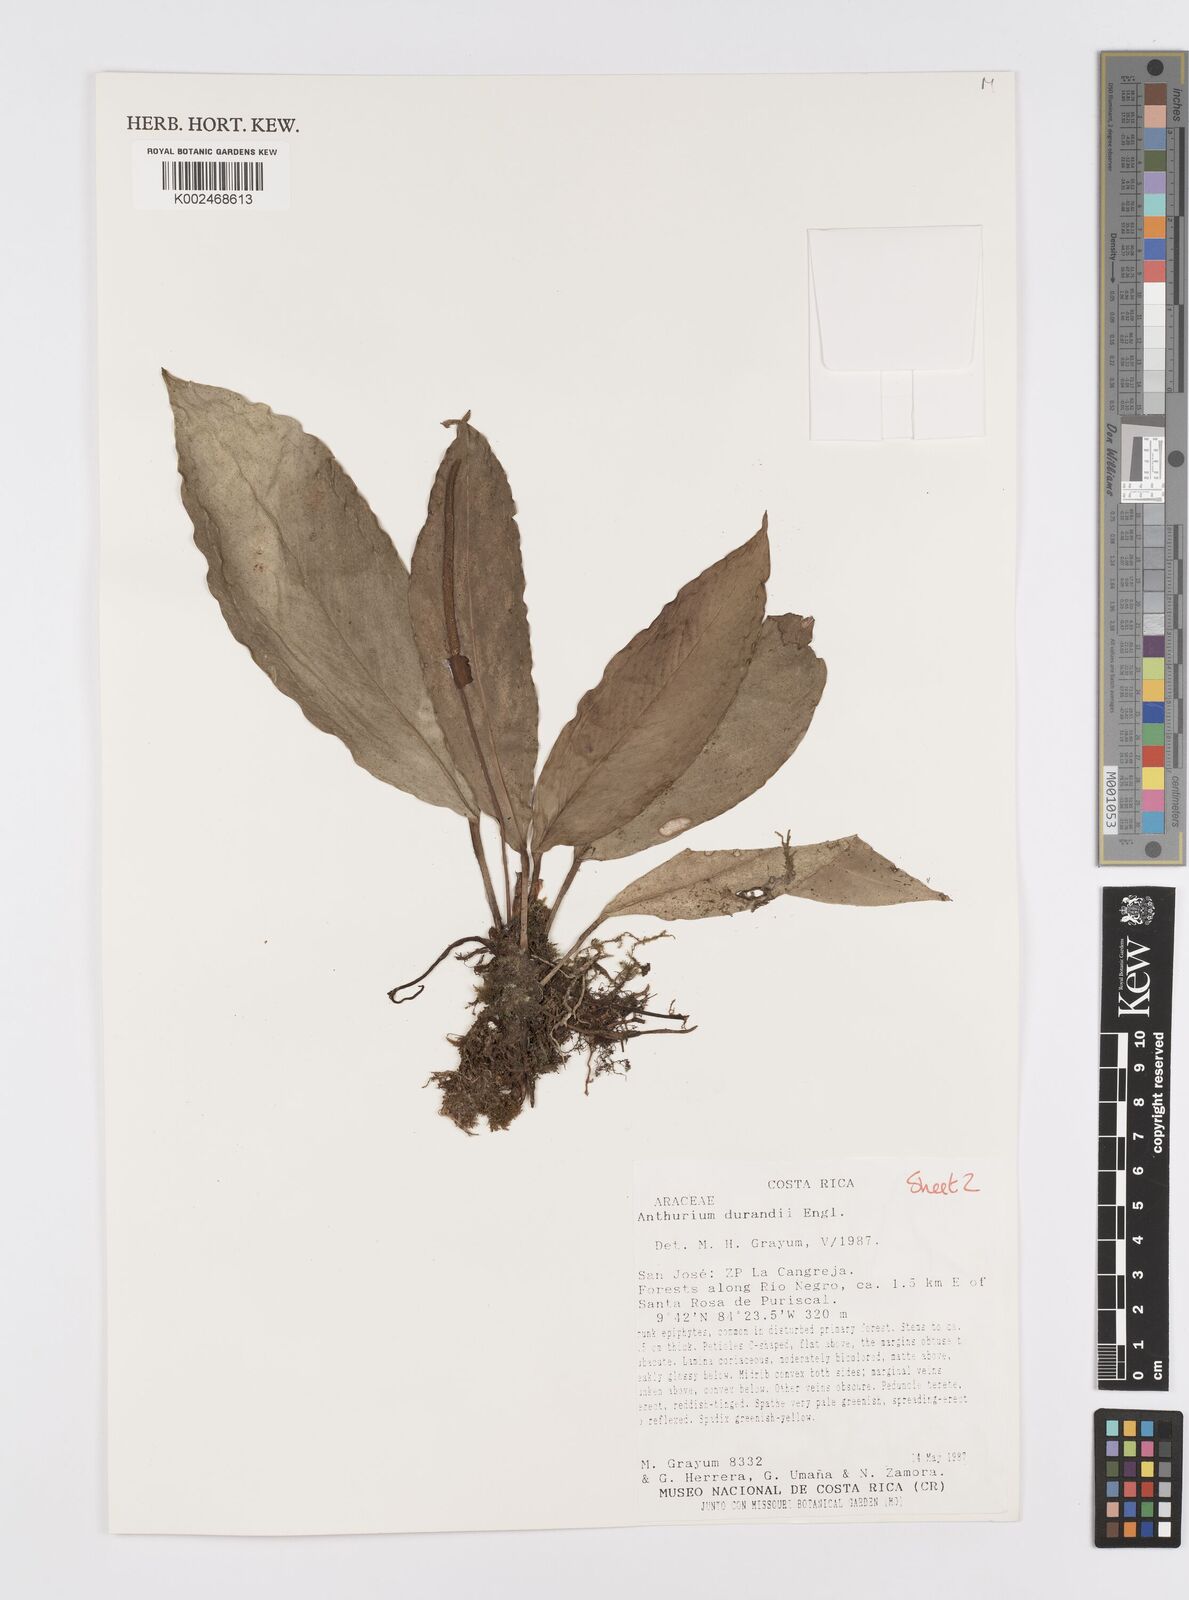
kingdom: Plantae
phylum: Tracheophyta
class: Liliopsida
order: Alismatales
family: Araceae
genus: Anthurium
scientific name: Anthurium durandii
